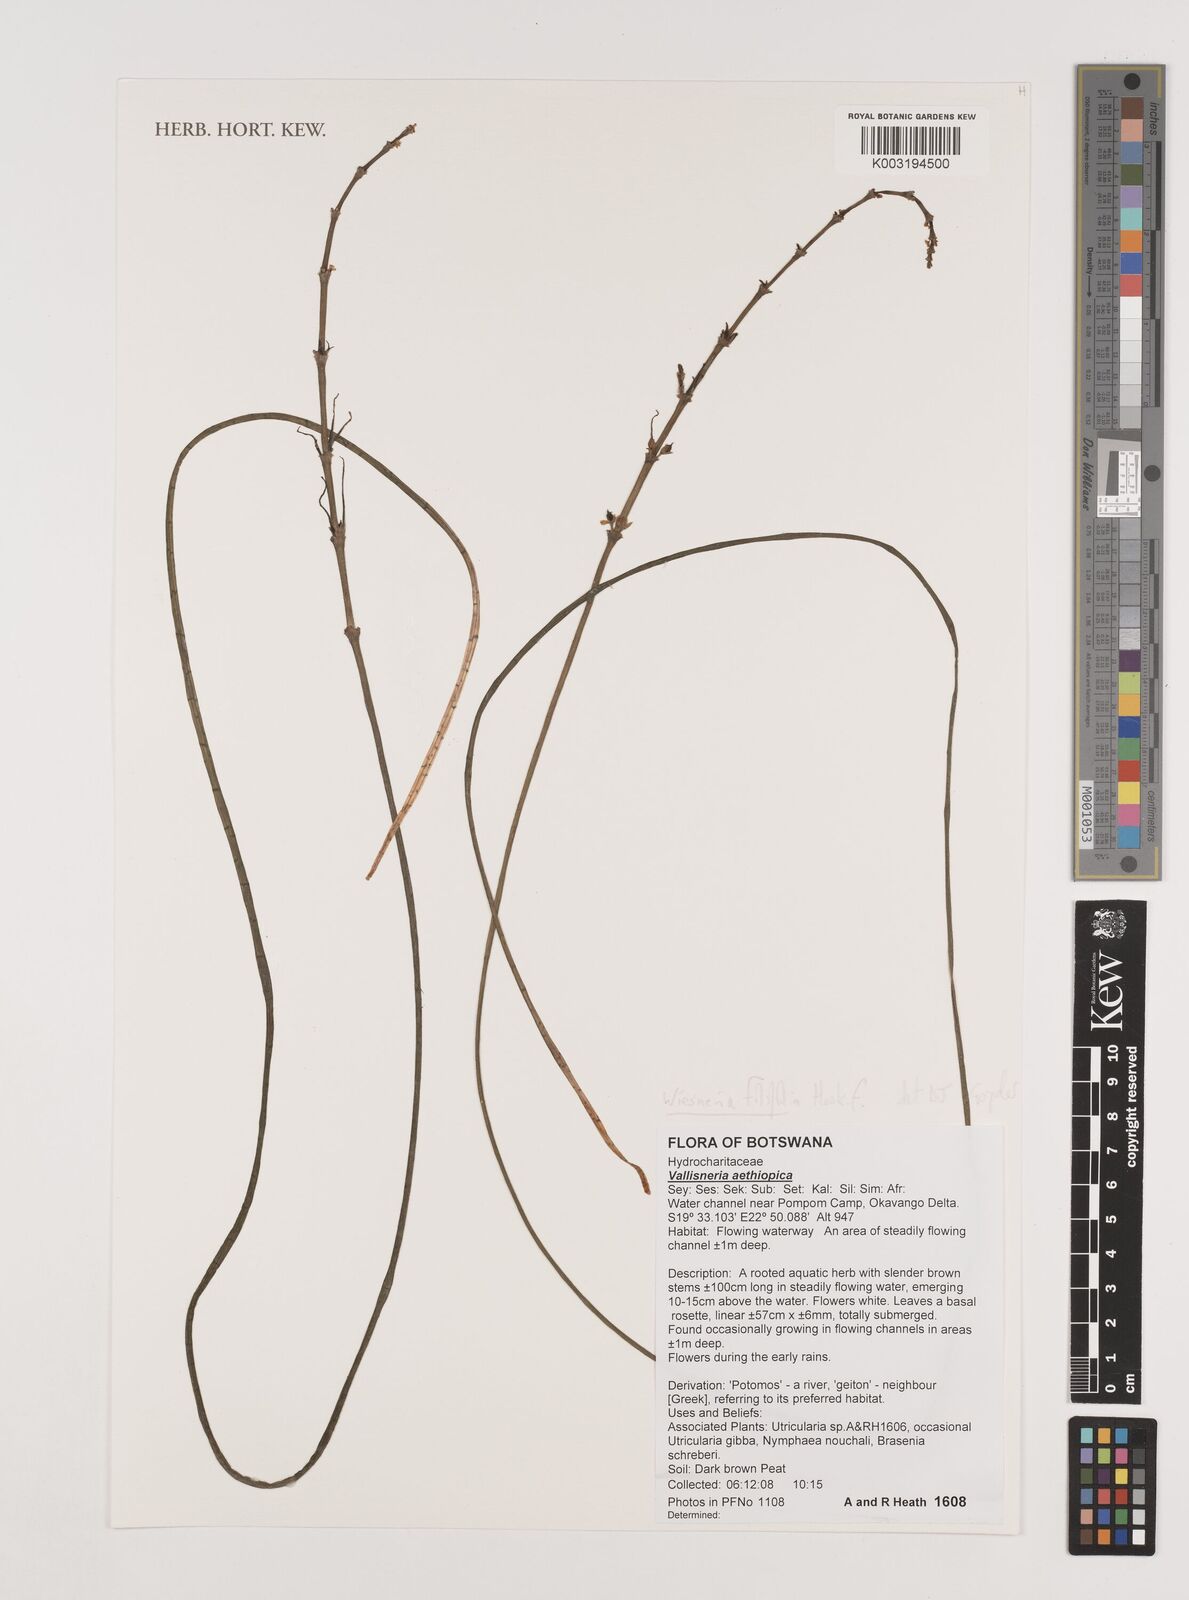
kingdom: Plantae
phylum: Tracheophyta
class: Liliopsida
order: Alismatales
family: Alismataceae
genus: Wiesneria
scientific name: Wiesneria filifolia
